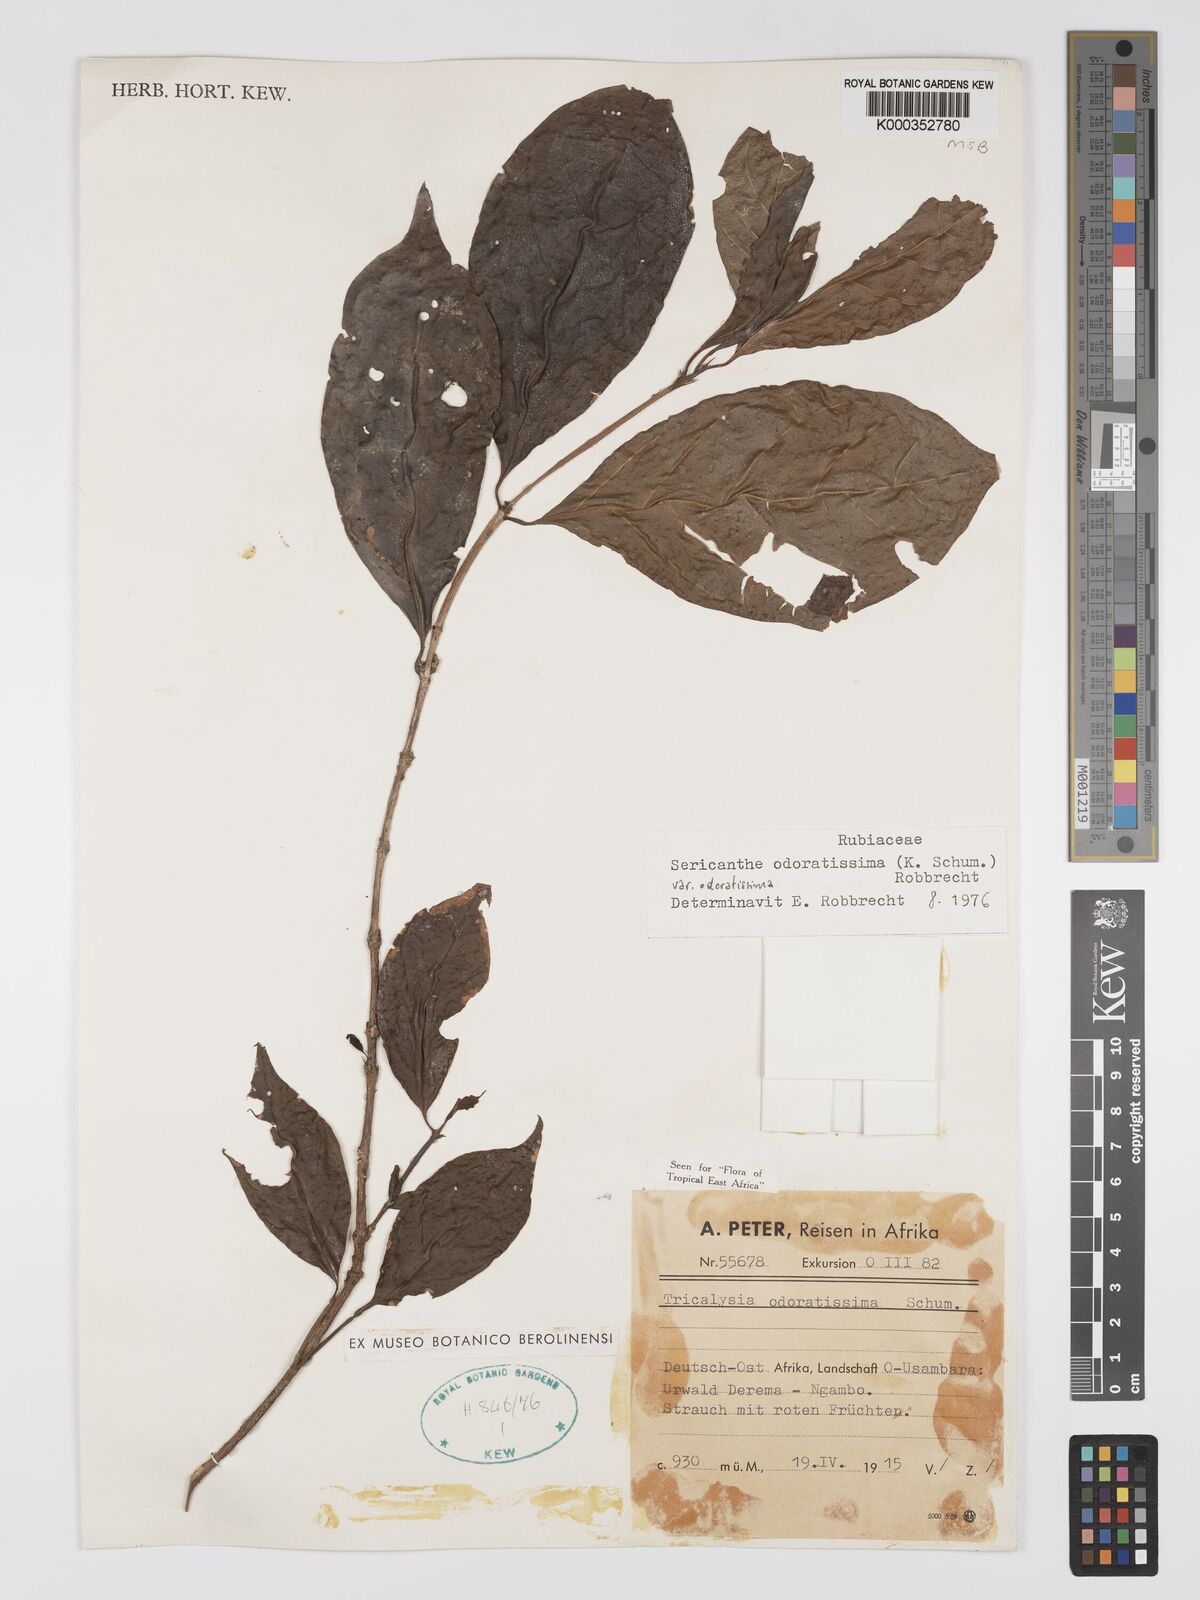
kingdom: Plantae
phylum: Tracheophyta
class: Magnoliopsida
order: Gentianales
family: Rubiaceae
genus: Sericanthe
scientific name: Sericanthe odoratissima
